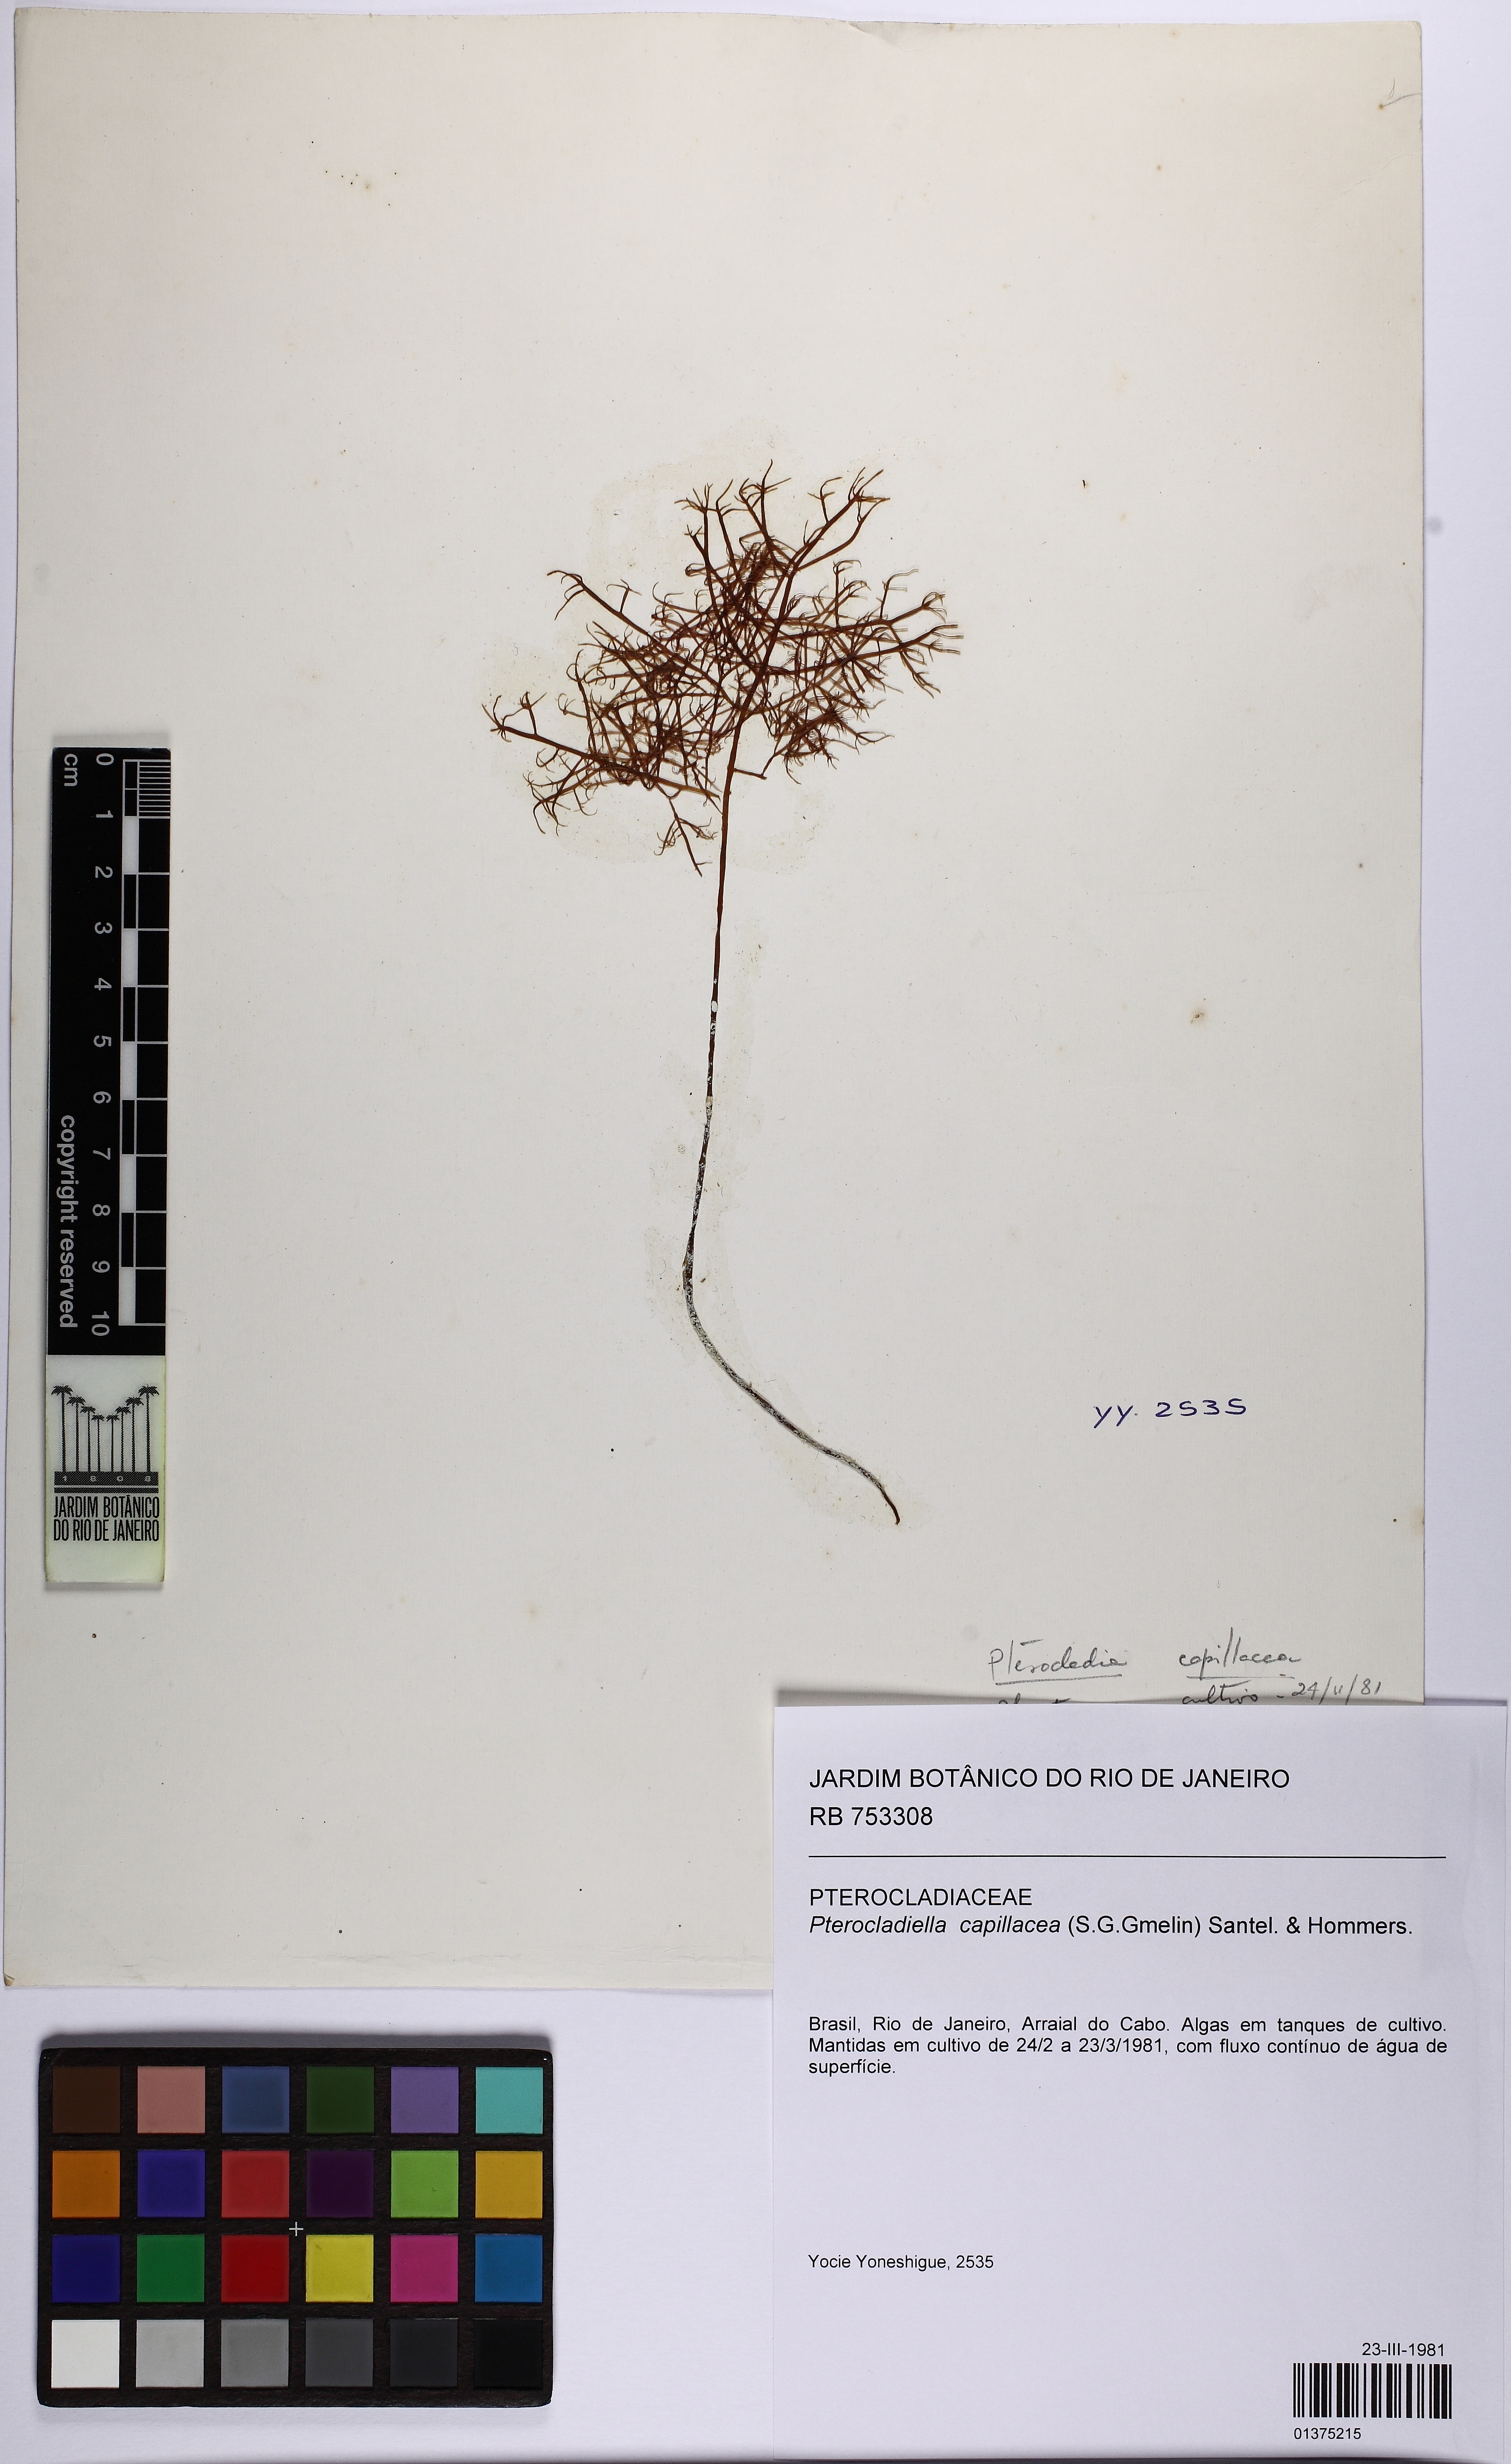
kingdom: Plantae
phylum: Rhodophyta
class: Florideophyceae
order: Gelidiales
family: Pterocladiaceae
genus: Pterocladiella
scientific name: Pterocladiella capillacea
